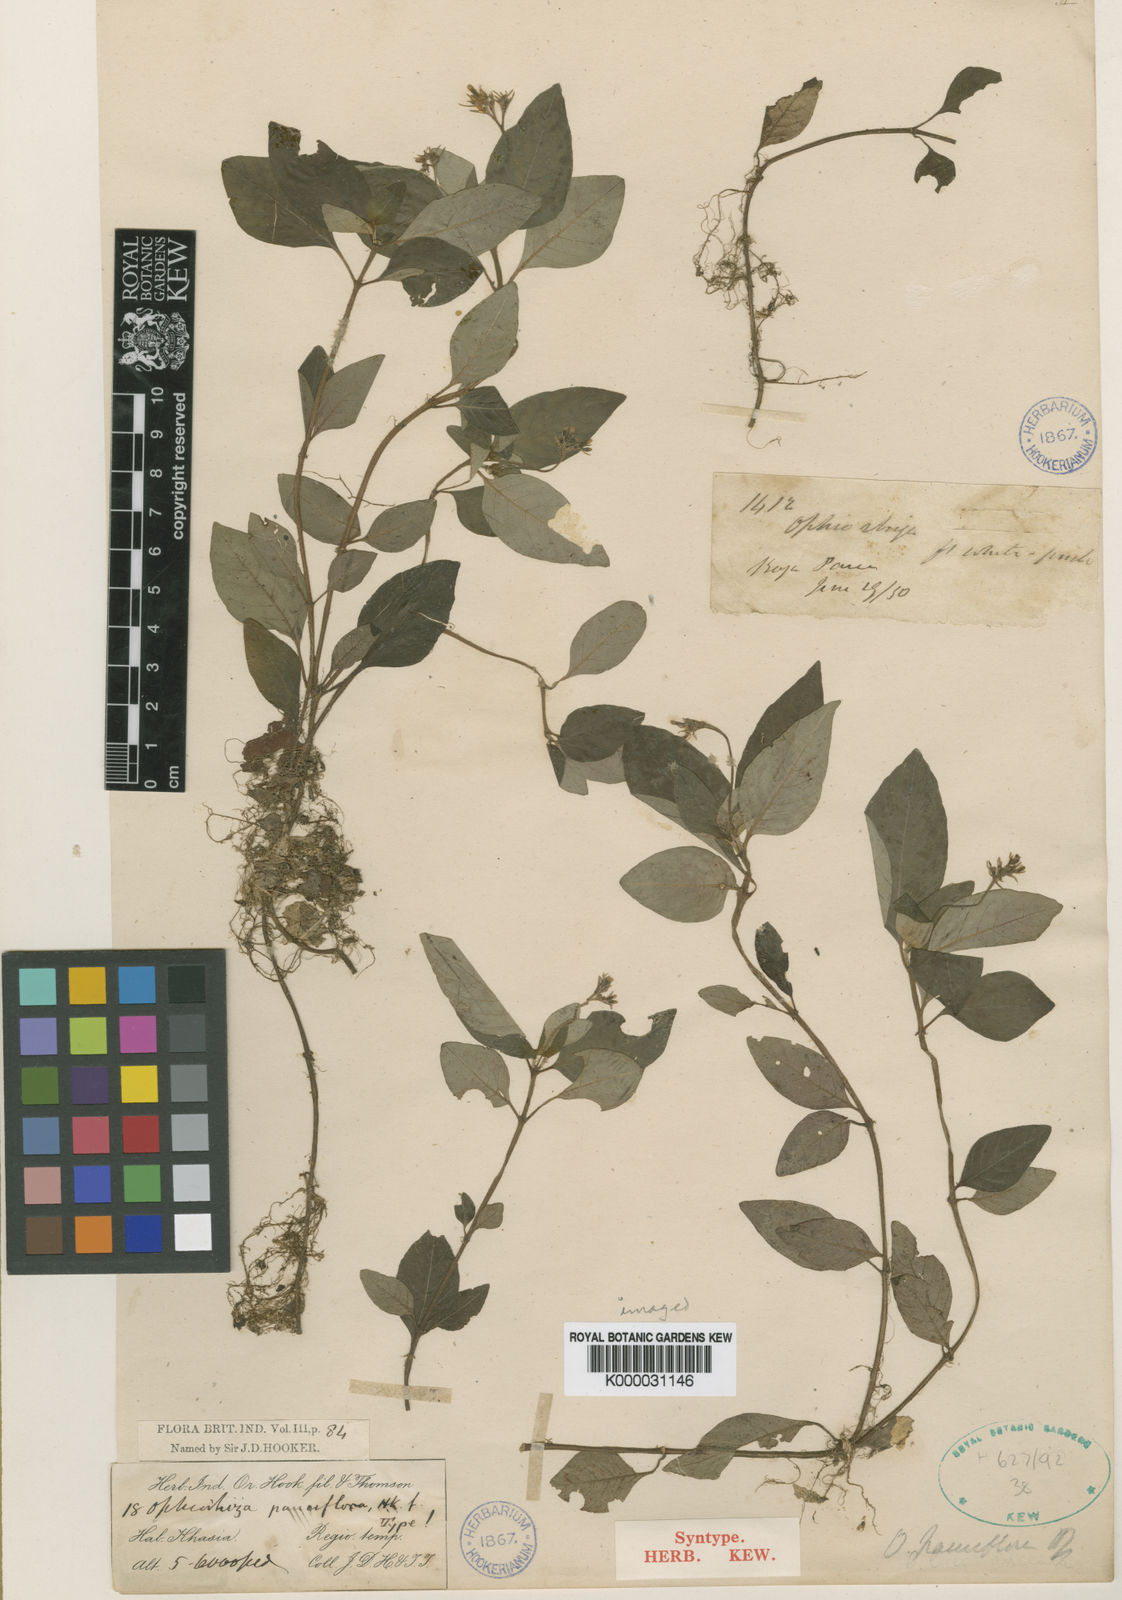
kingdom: Plantae
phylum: Tracheophyta
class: Magnoliopsida
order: Gentianales
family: Rubiaceae
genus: Ophiorrhiza
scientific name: Ophiorrhiza pauciflora
